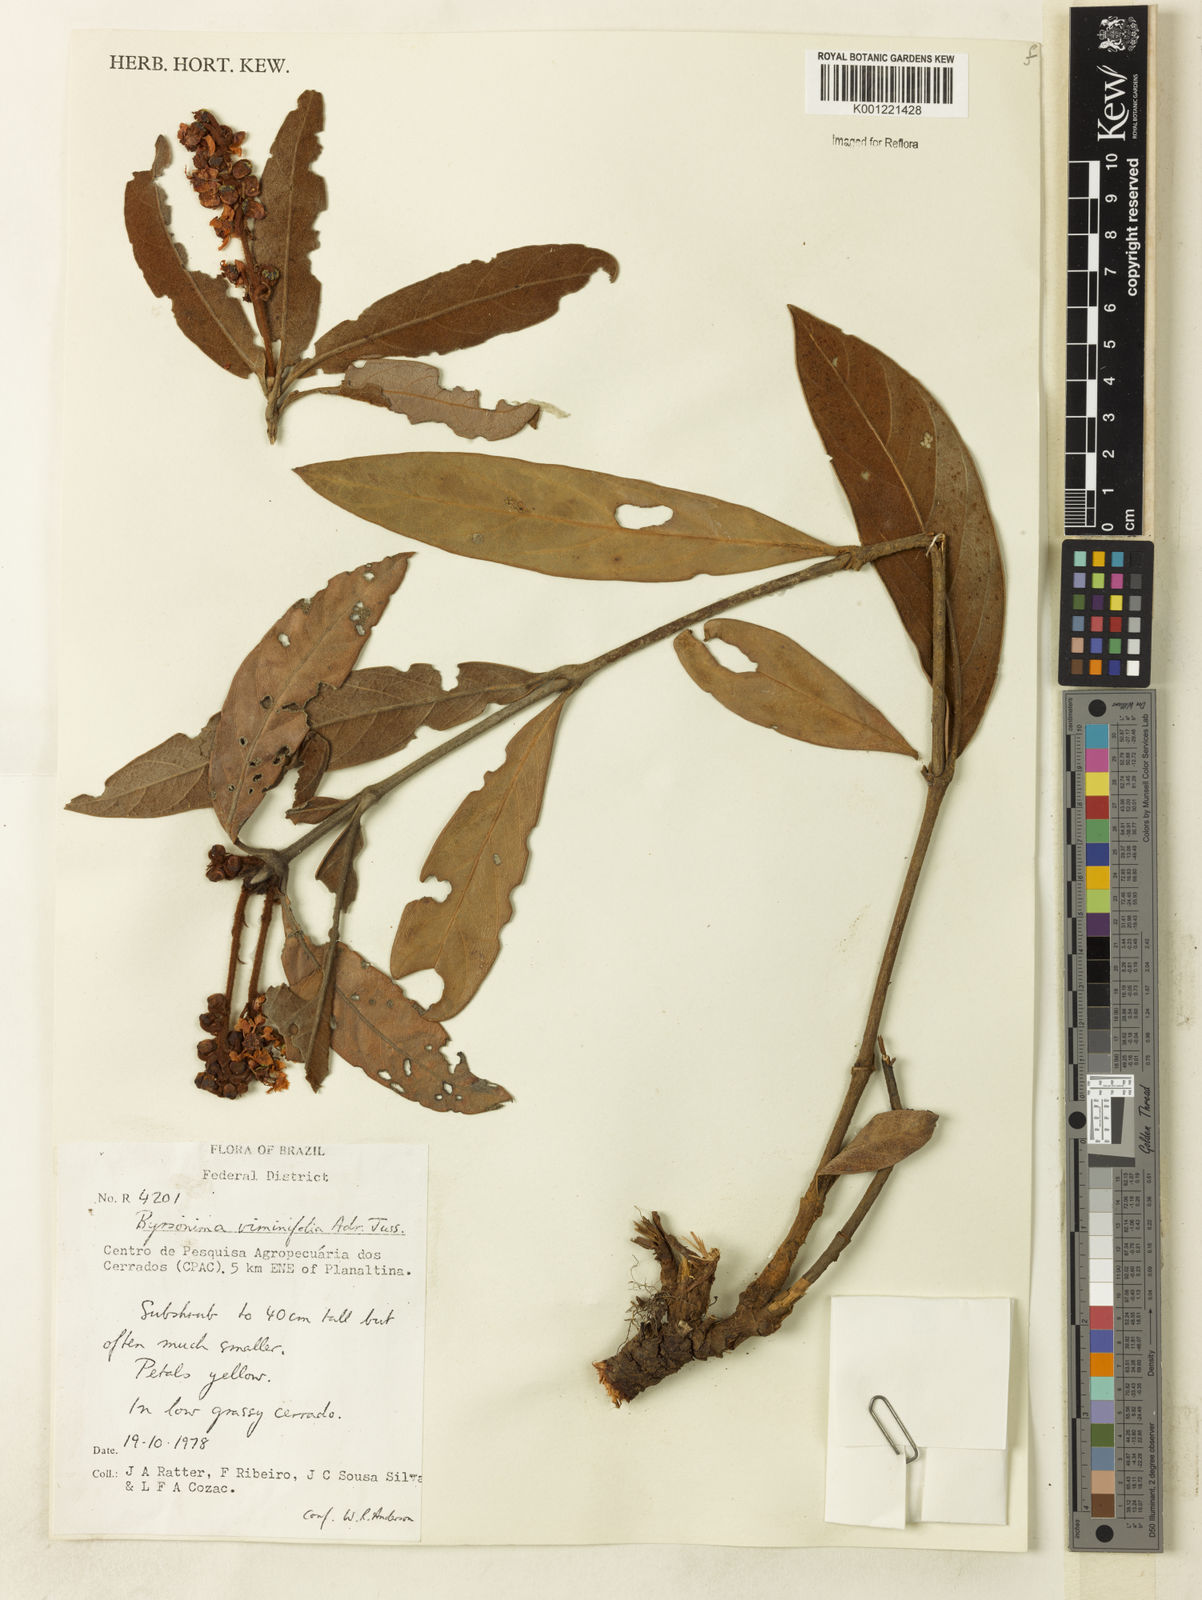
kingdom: Plantae
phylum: Tracheophyta
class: Magnoliopsida
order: Malpighiales
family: Malpighiaceae
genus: Byrsonima
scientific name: Byrsonima viminifolia
